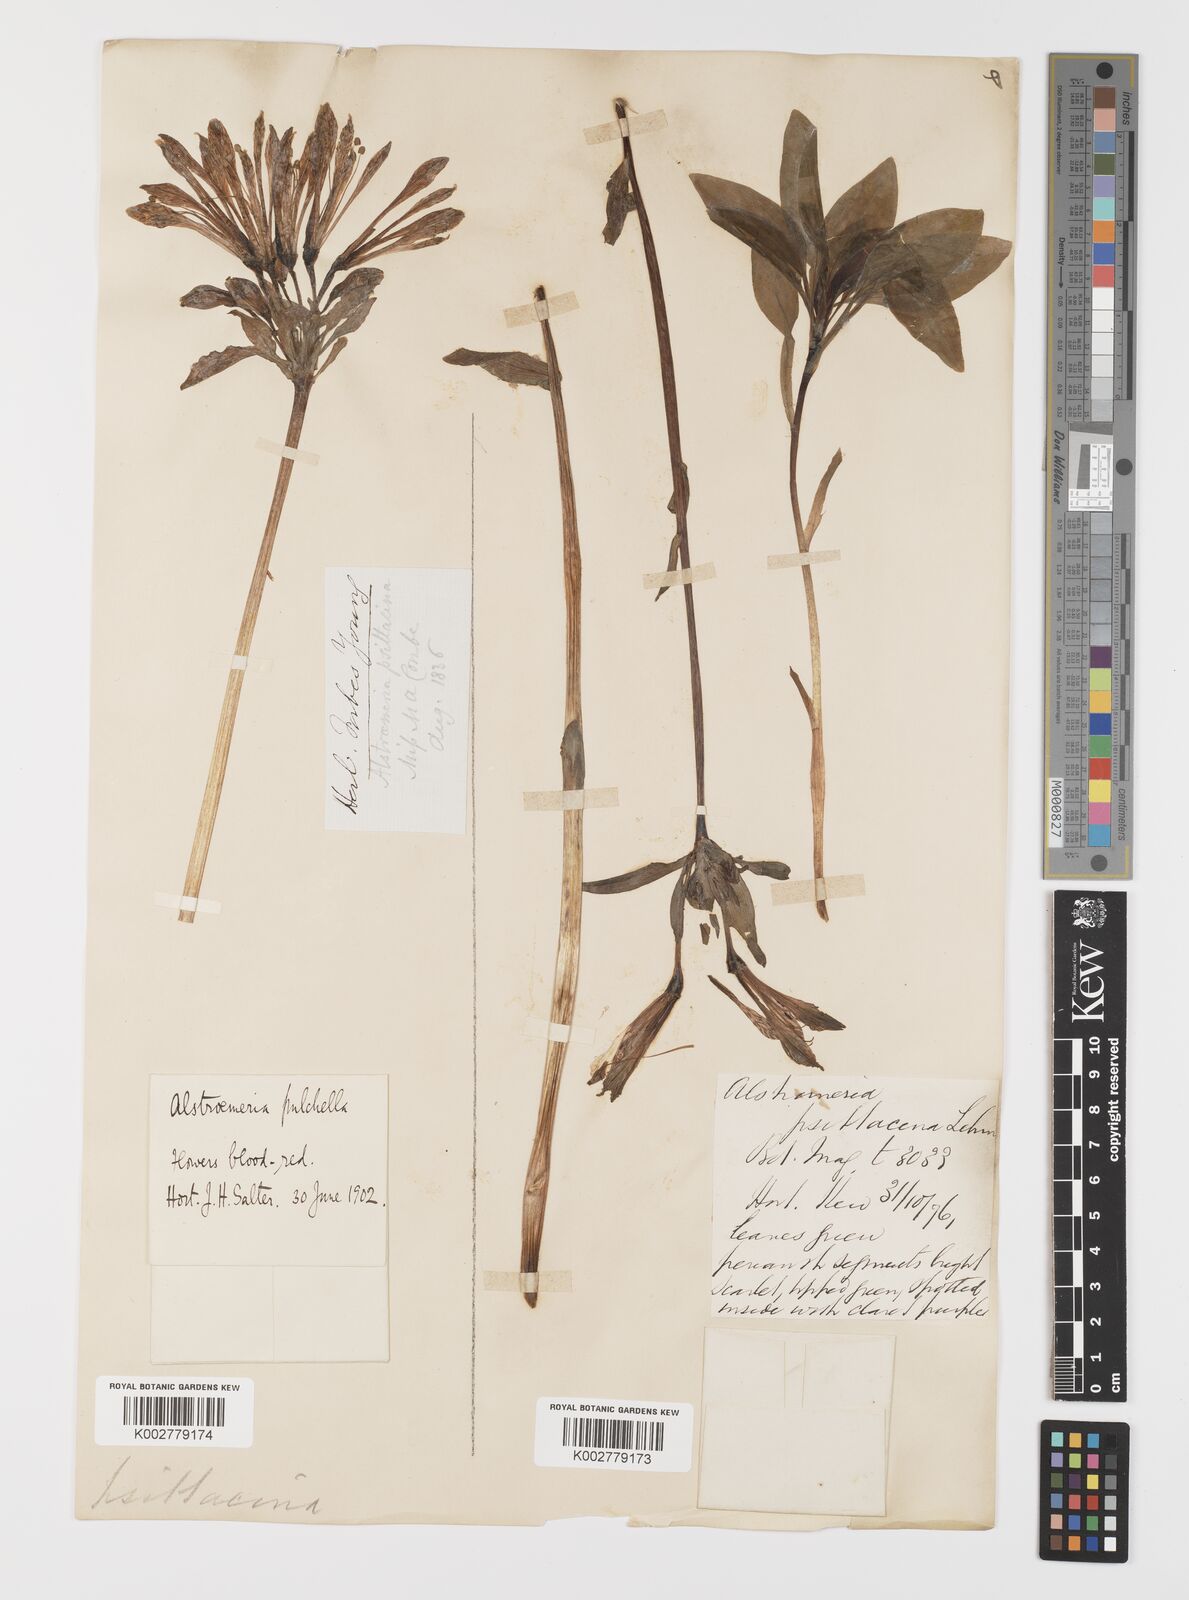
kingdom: Plantae
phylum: Tracheophyta
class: Liliopsida
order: Liliales
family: Alstroemeriaceae
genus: Alstroemeria
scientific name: Alstroemeria pelegrina
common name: Peruvian-lily
